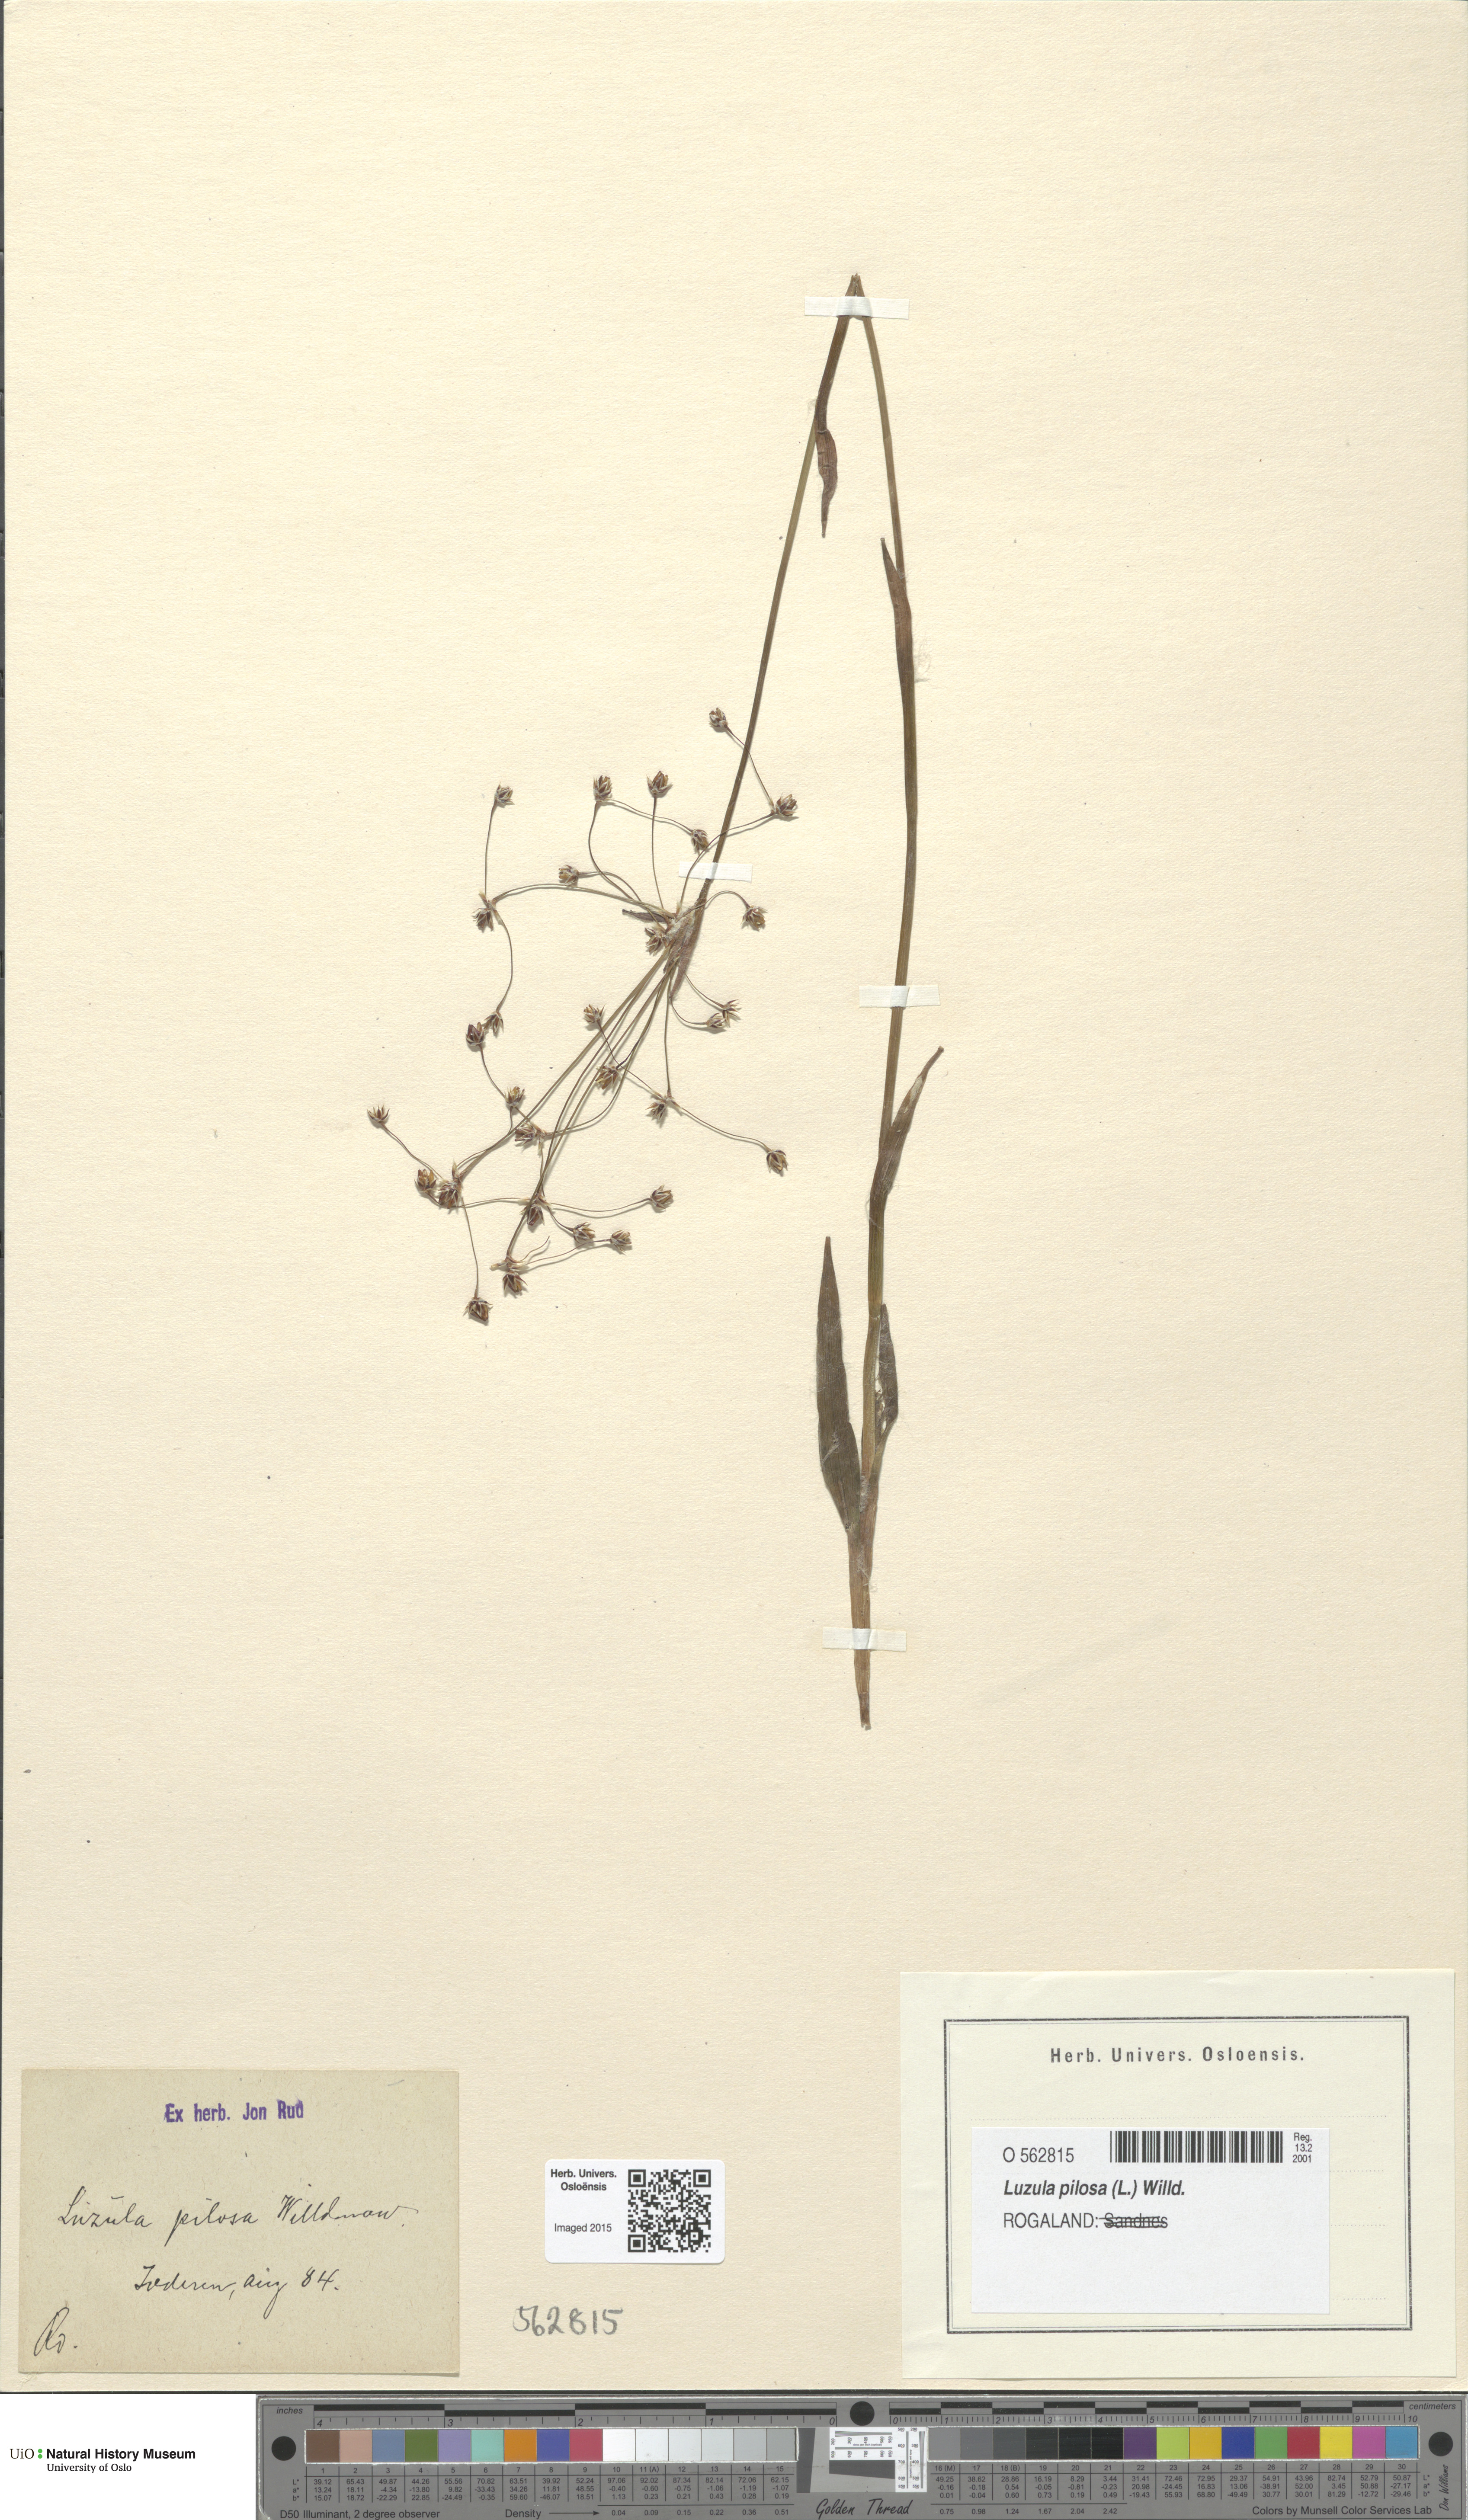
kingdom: Plantae
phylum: Tracheophyta
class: Liliopsida
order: Poales
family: Juncaceae
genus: Luzula
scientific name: Luzula pilosa
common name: Hairy wood-rush
